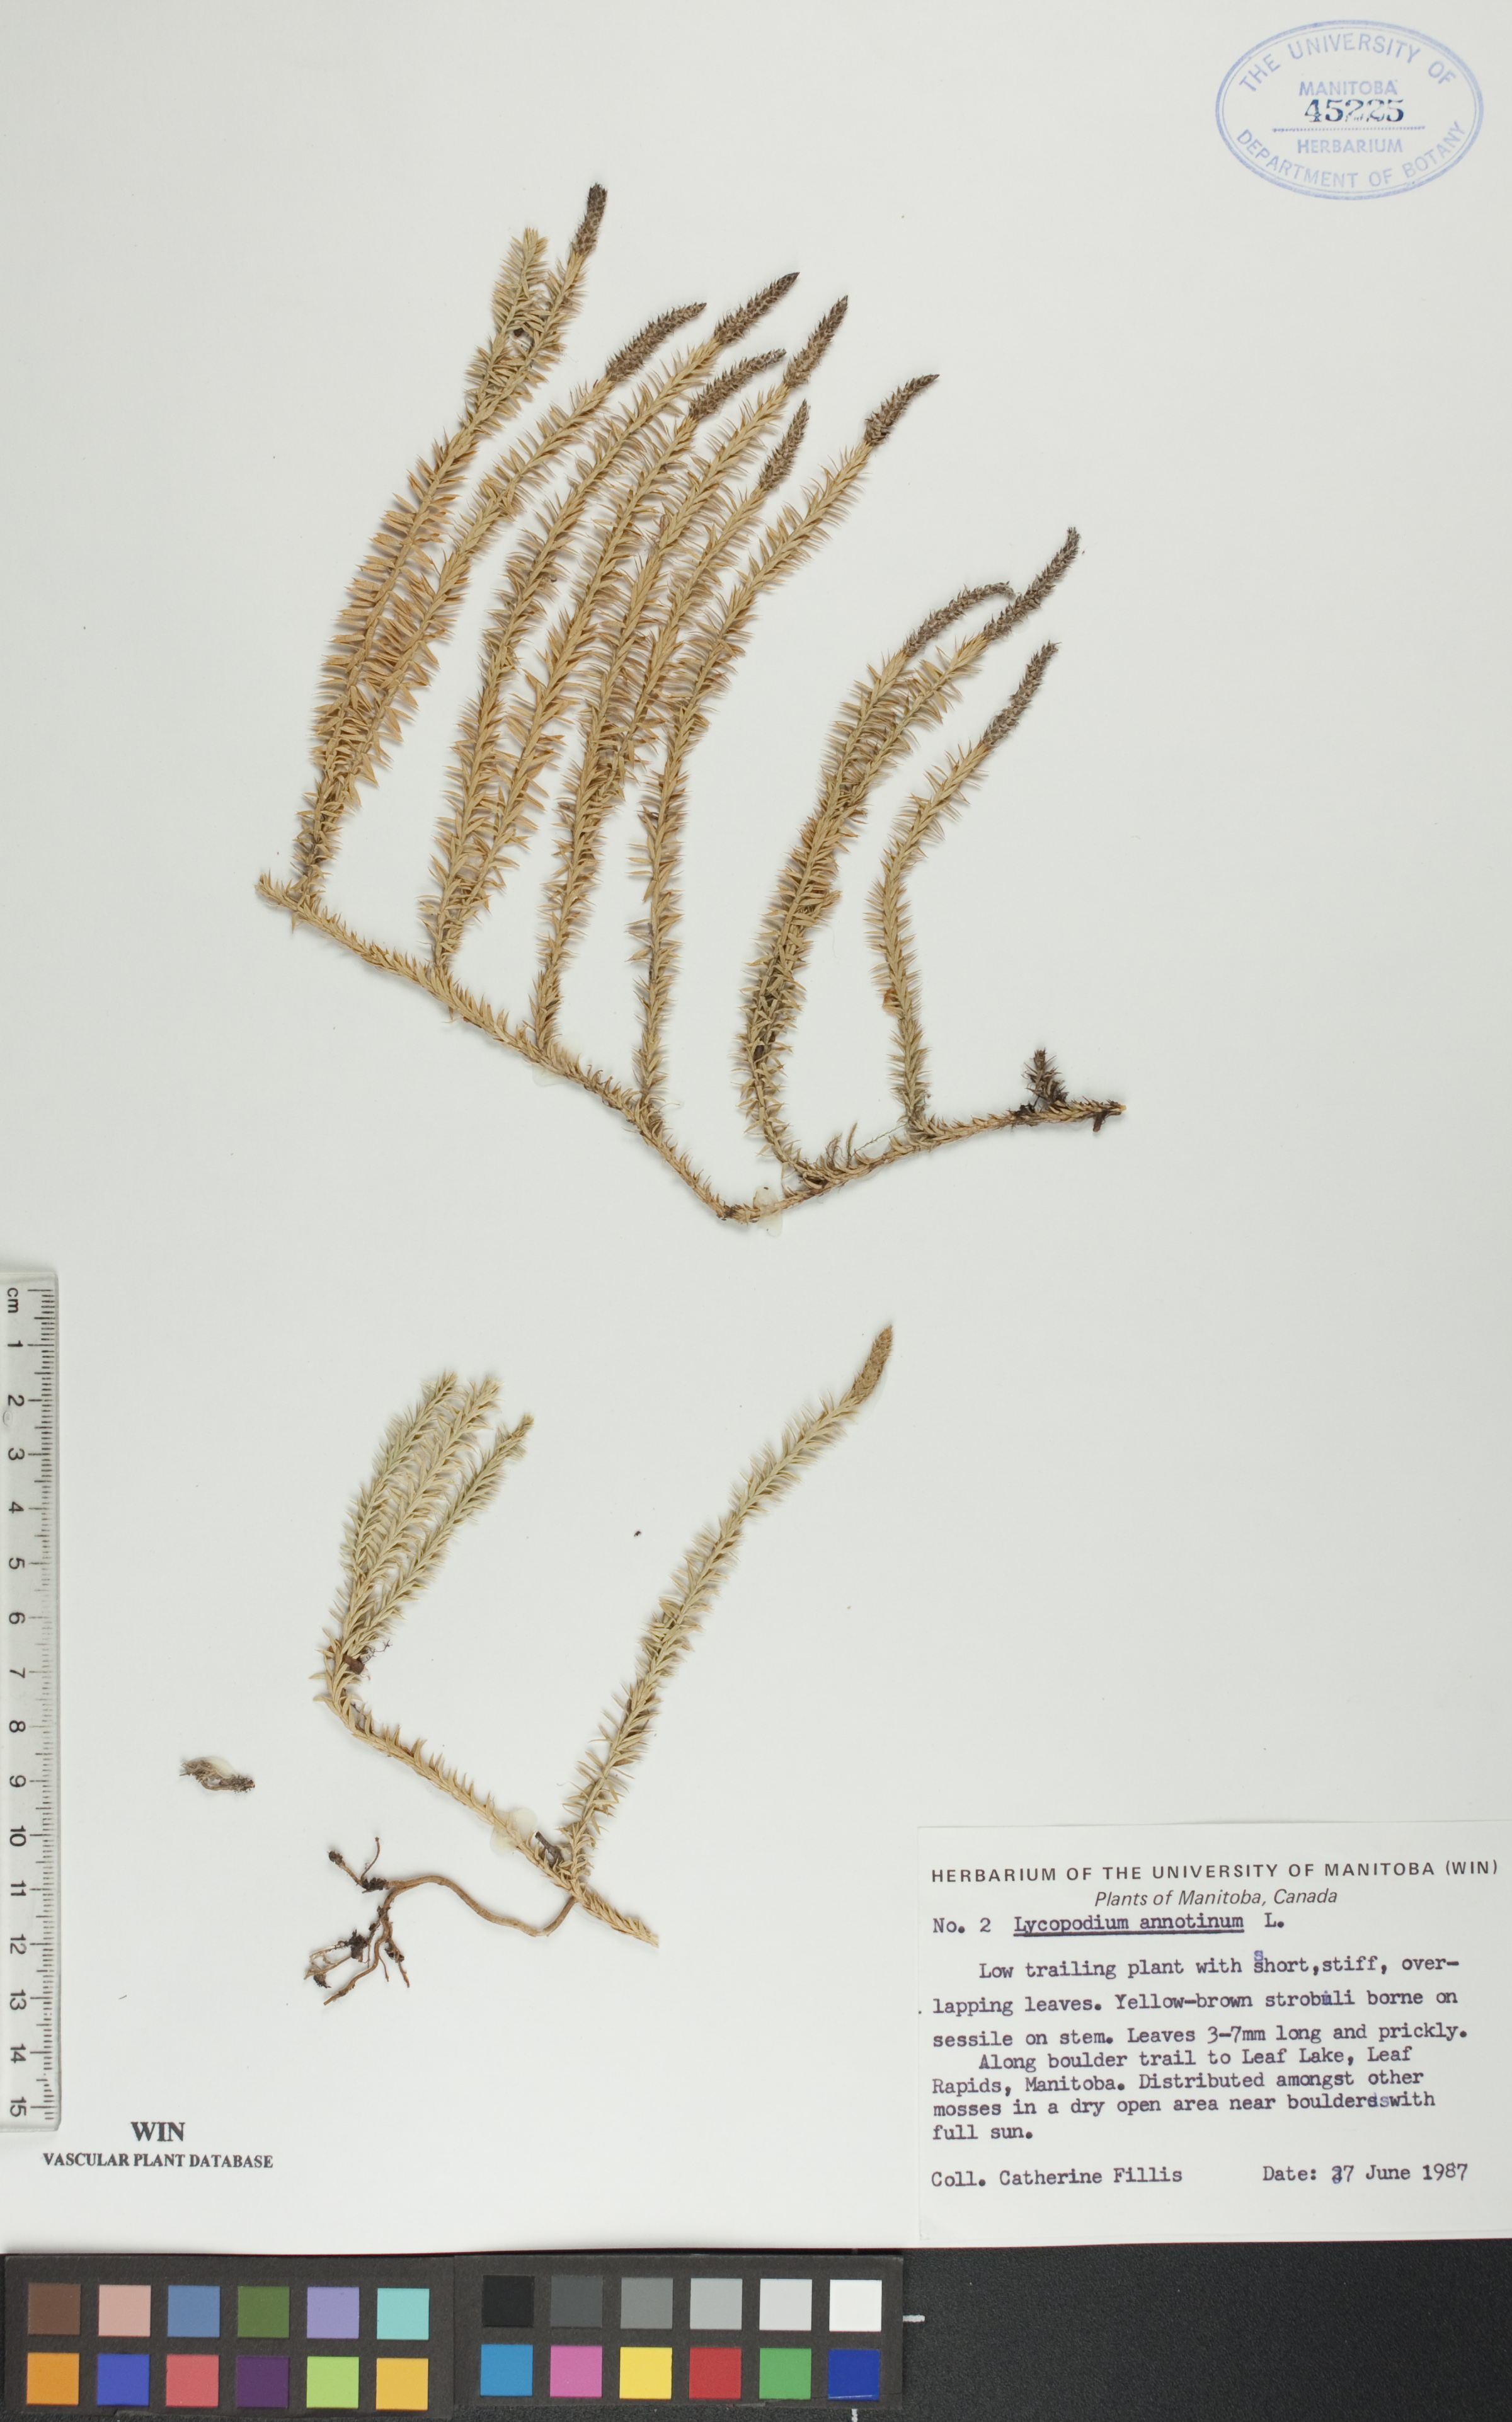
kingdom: Plantae
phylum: Tracheophyta
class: Lycopodiopsida
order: Lycopodiales
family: Lycopodiaceae
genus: Spinulum
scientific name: Spinulum annotinum
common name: Interrupted club-moss
